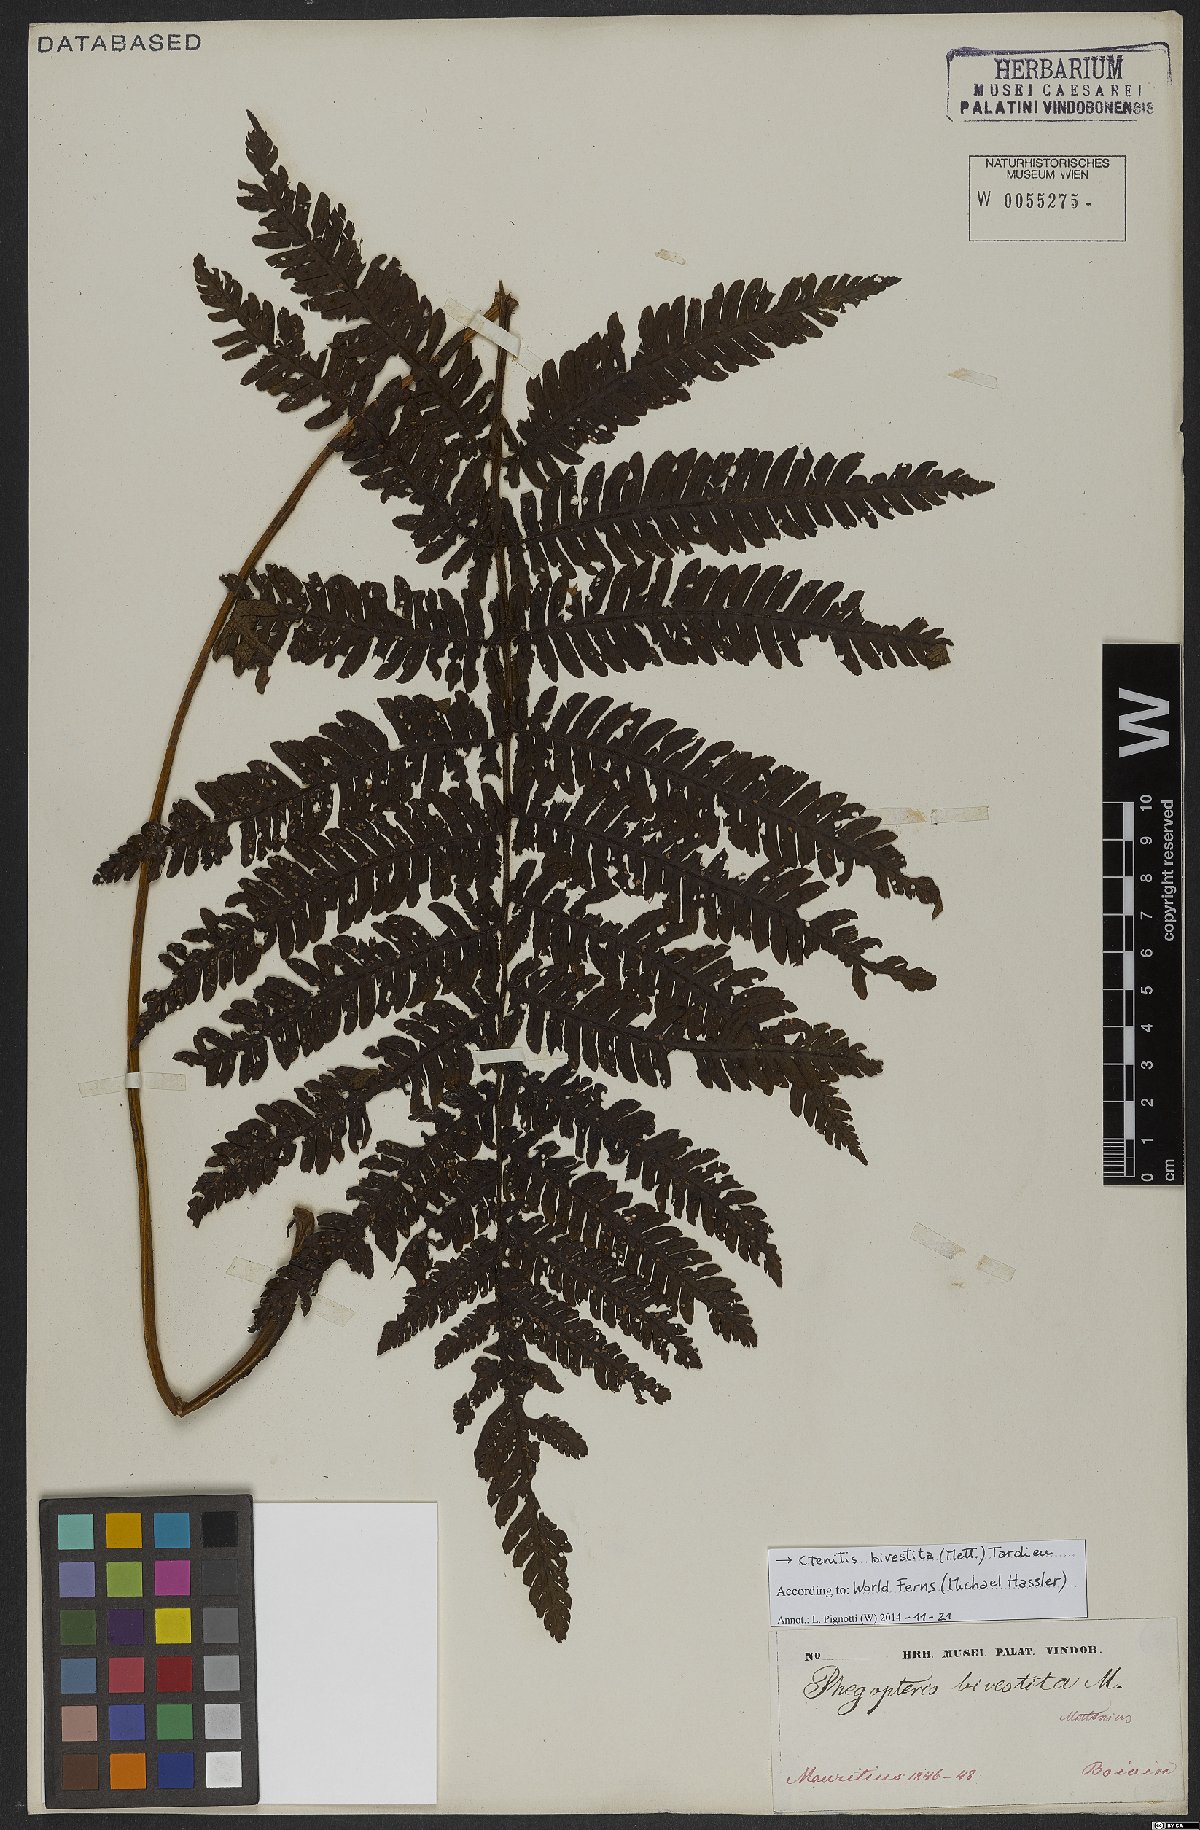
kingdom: Plantae
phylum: Tracheophyta
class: Polypodiopsida
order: Polypodiales
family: Dryopteridaceae
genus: Ctenitis
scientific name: Ctenitis bivestita
